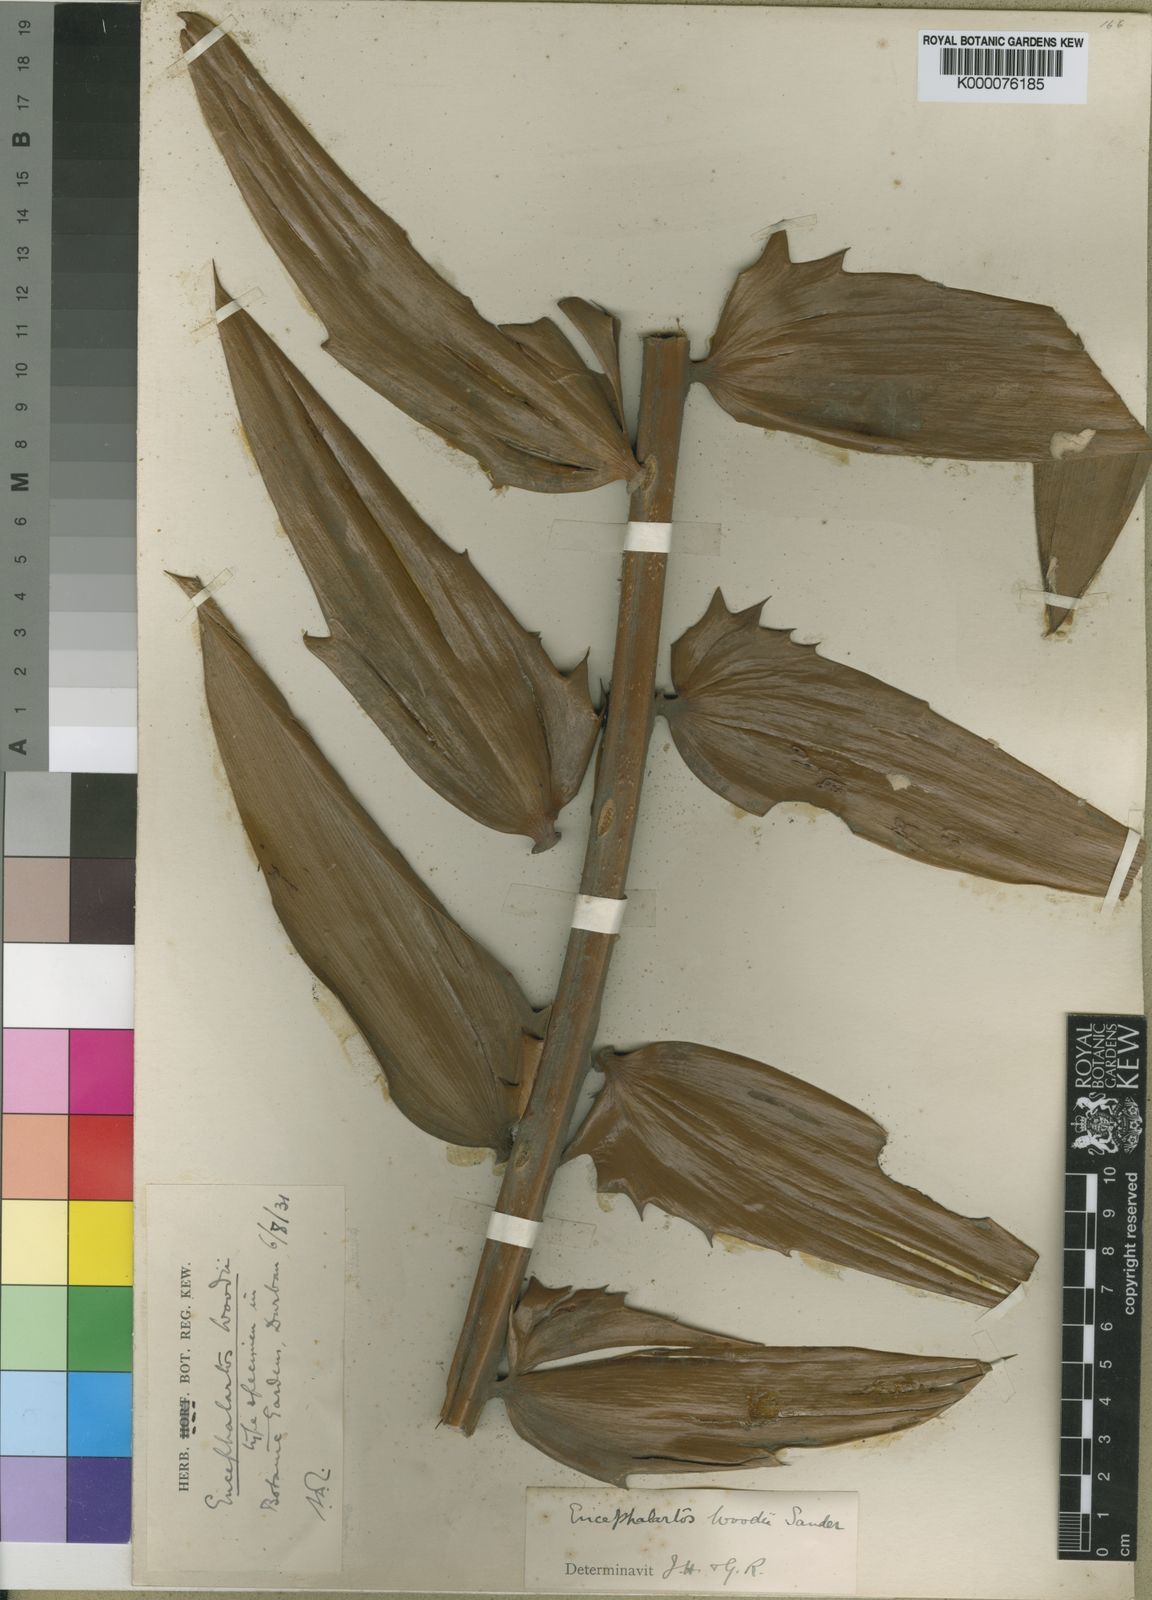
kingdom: Plantae
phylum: Tracheophyta
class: Cycadopsida
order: Cycadales
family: Zamiaceae
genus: Encephalartos
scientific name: Encephalartos woodii
